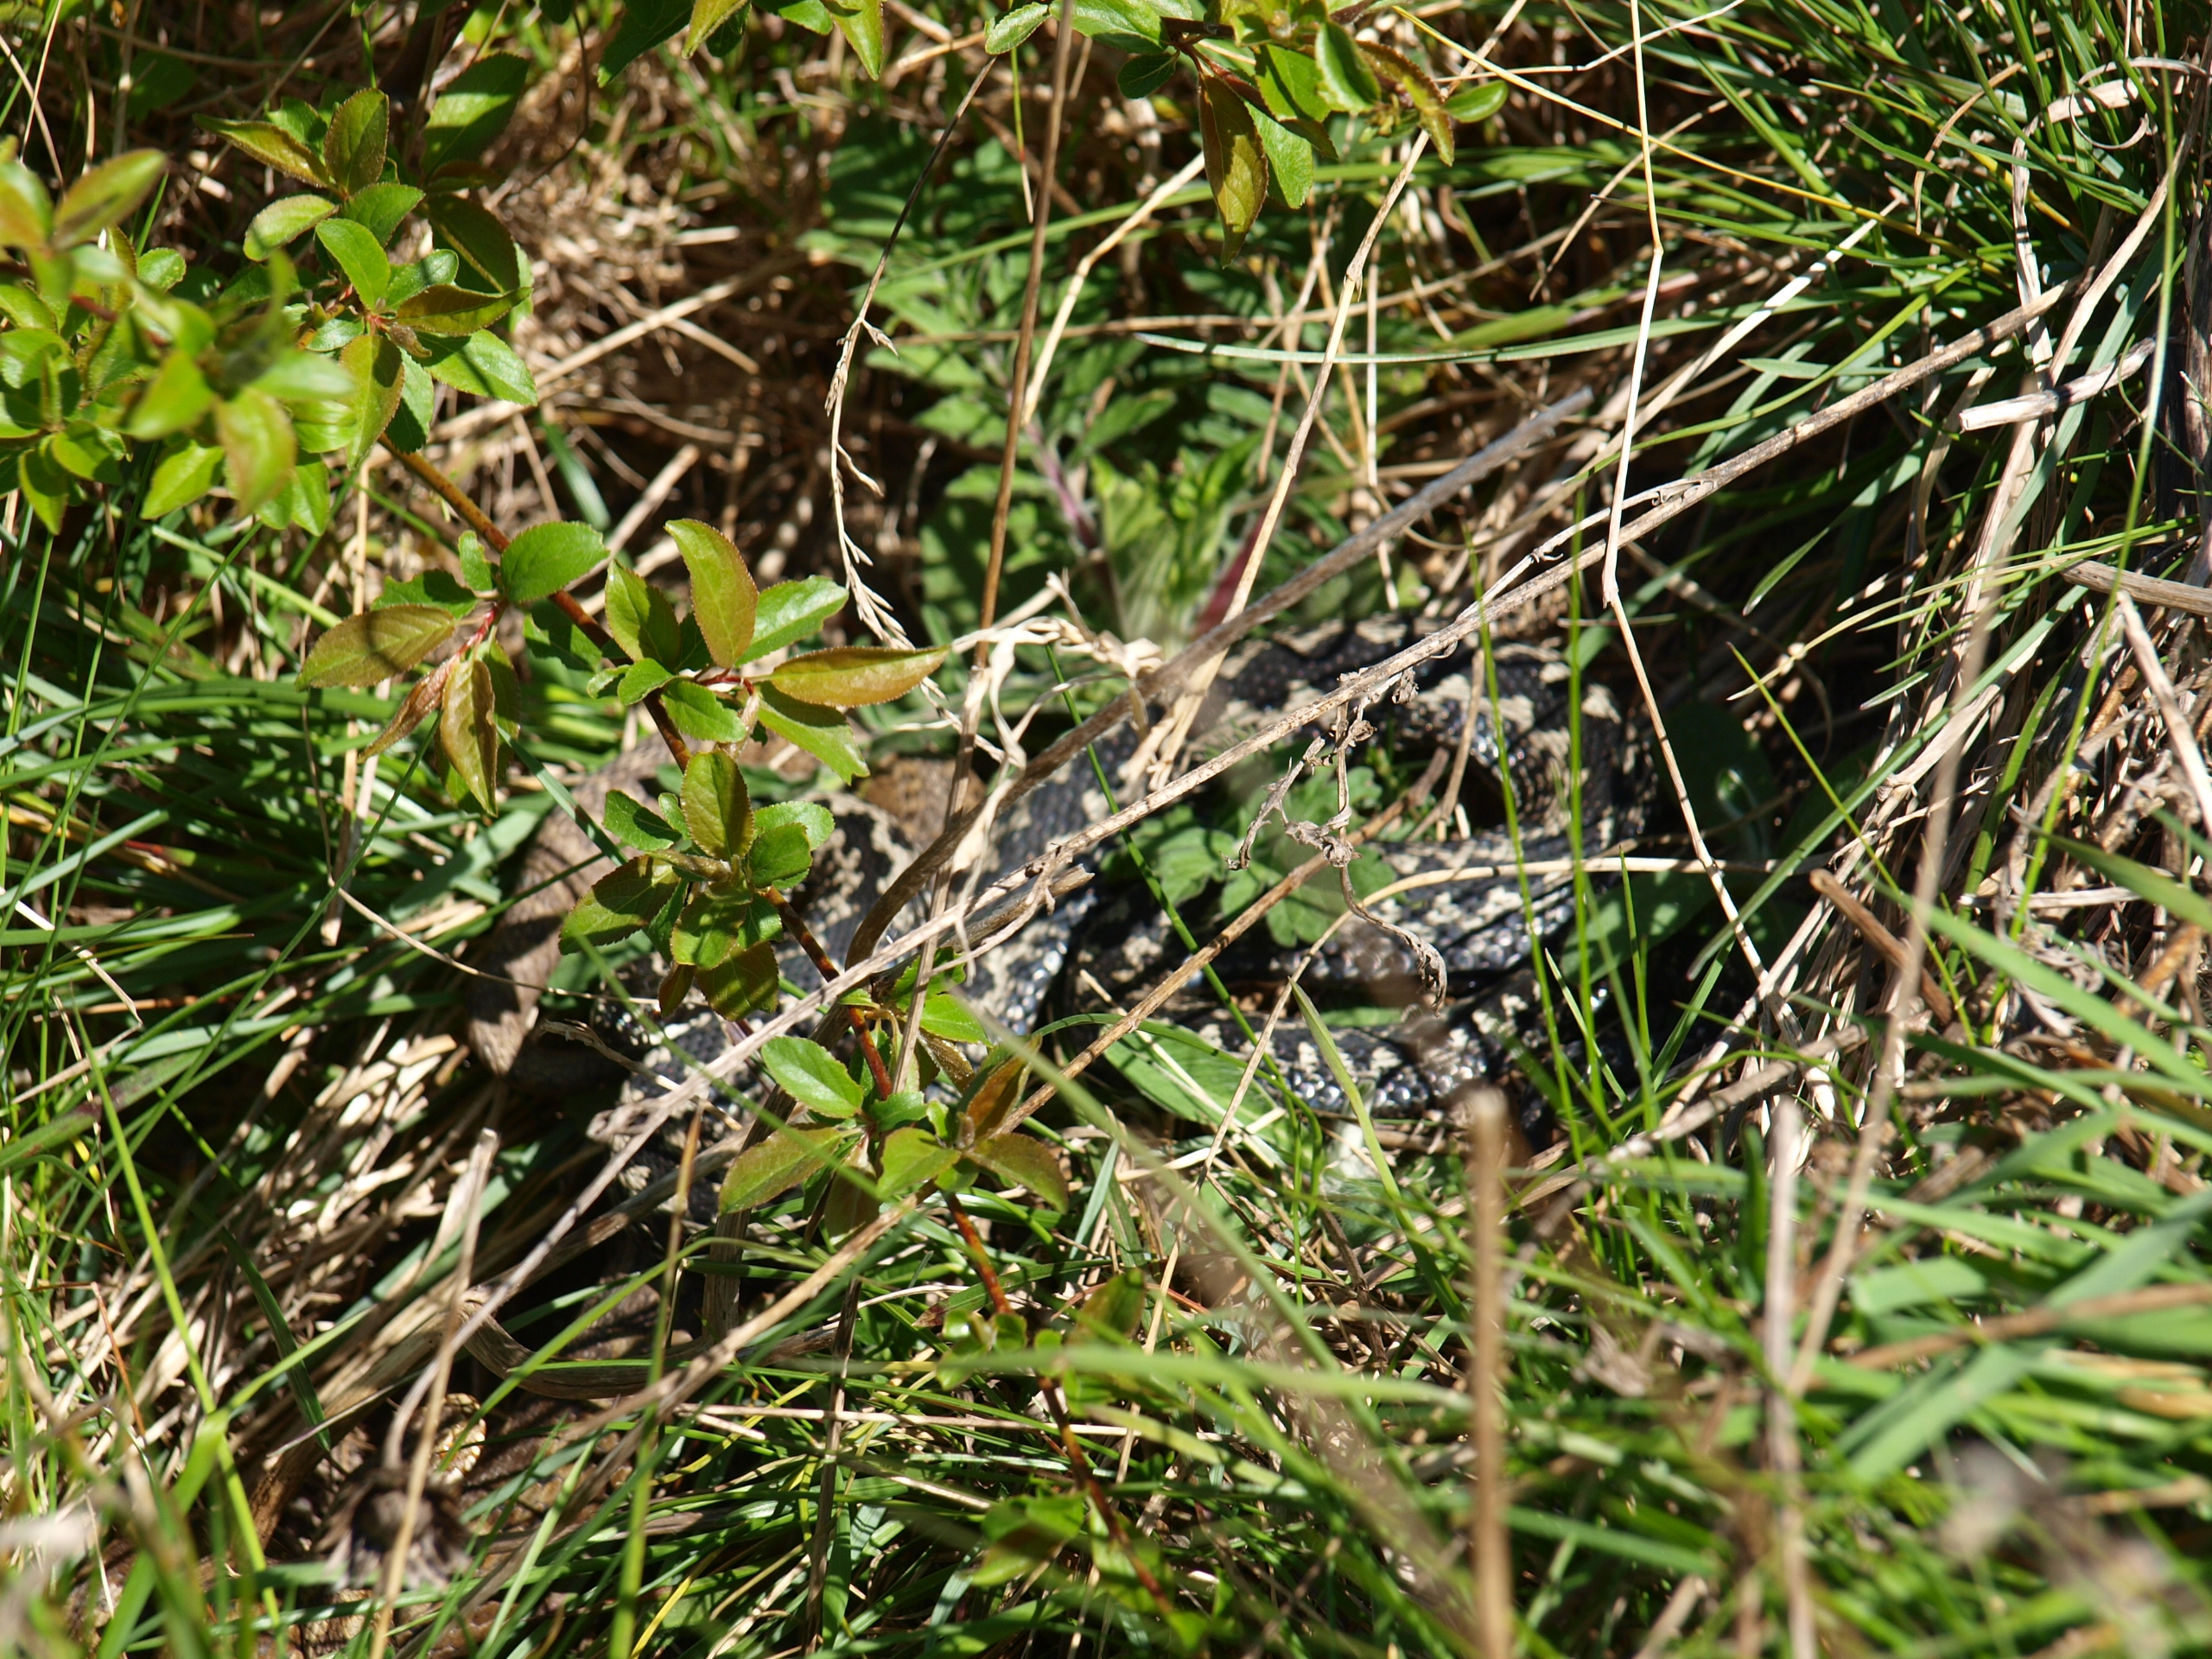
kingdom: Animalia
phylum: Chordata
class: Squamata
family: Viperidae
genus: Vipera
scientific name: Vipera berus
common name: Hugorm
